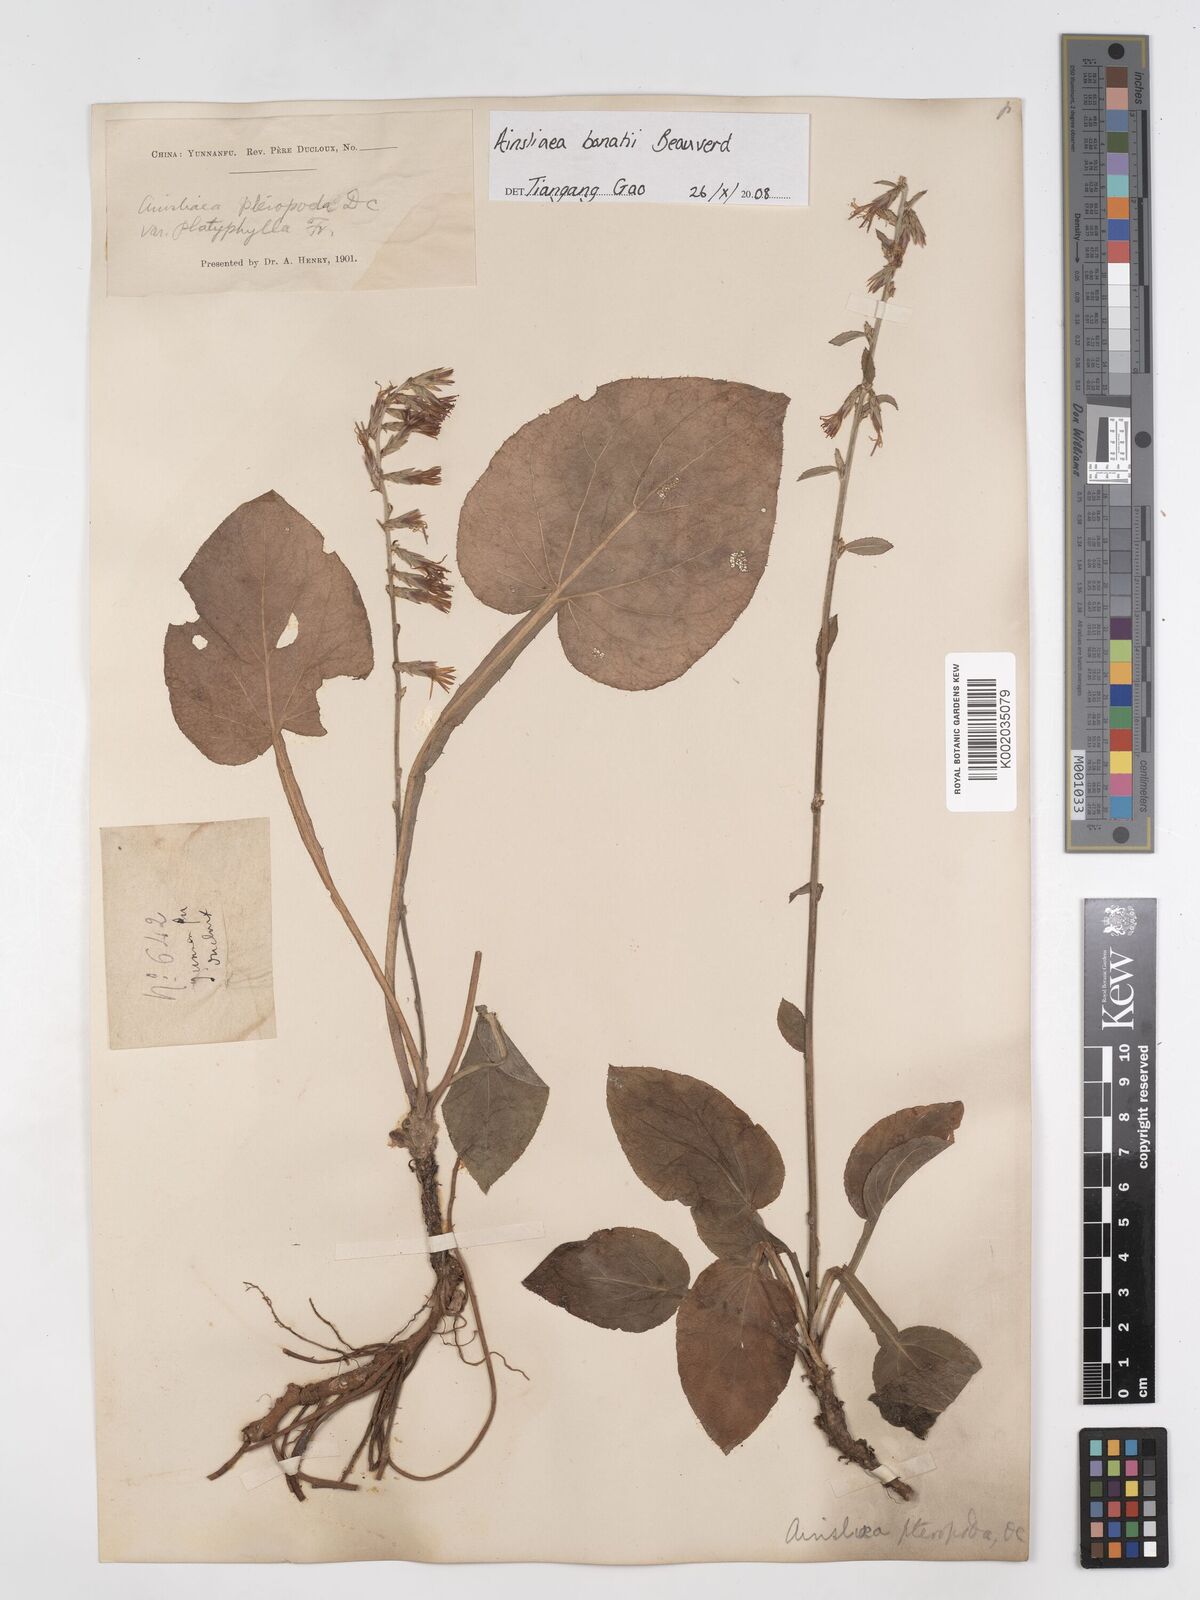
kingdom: Plantae
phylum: Tracheophyta
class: Magnoliopsida
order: Asterales
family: Asteraceae
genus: Ainsliaea
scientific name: Ainsliaea bonatii
